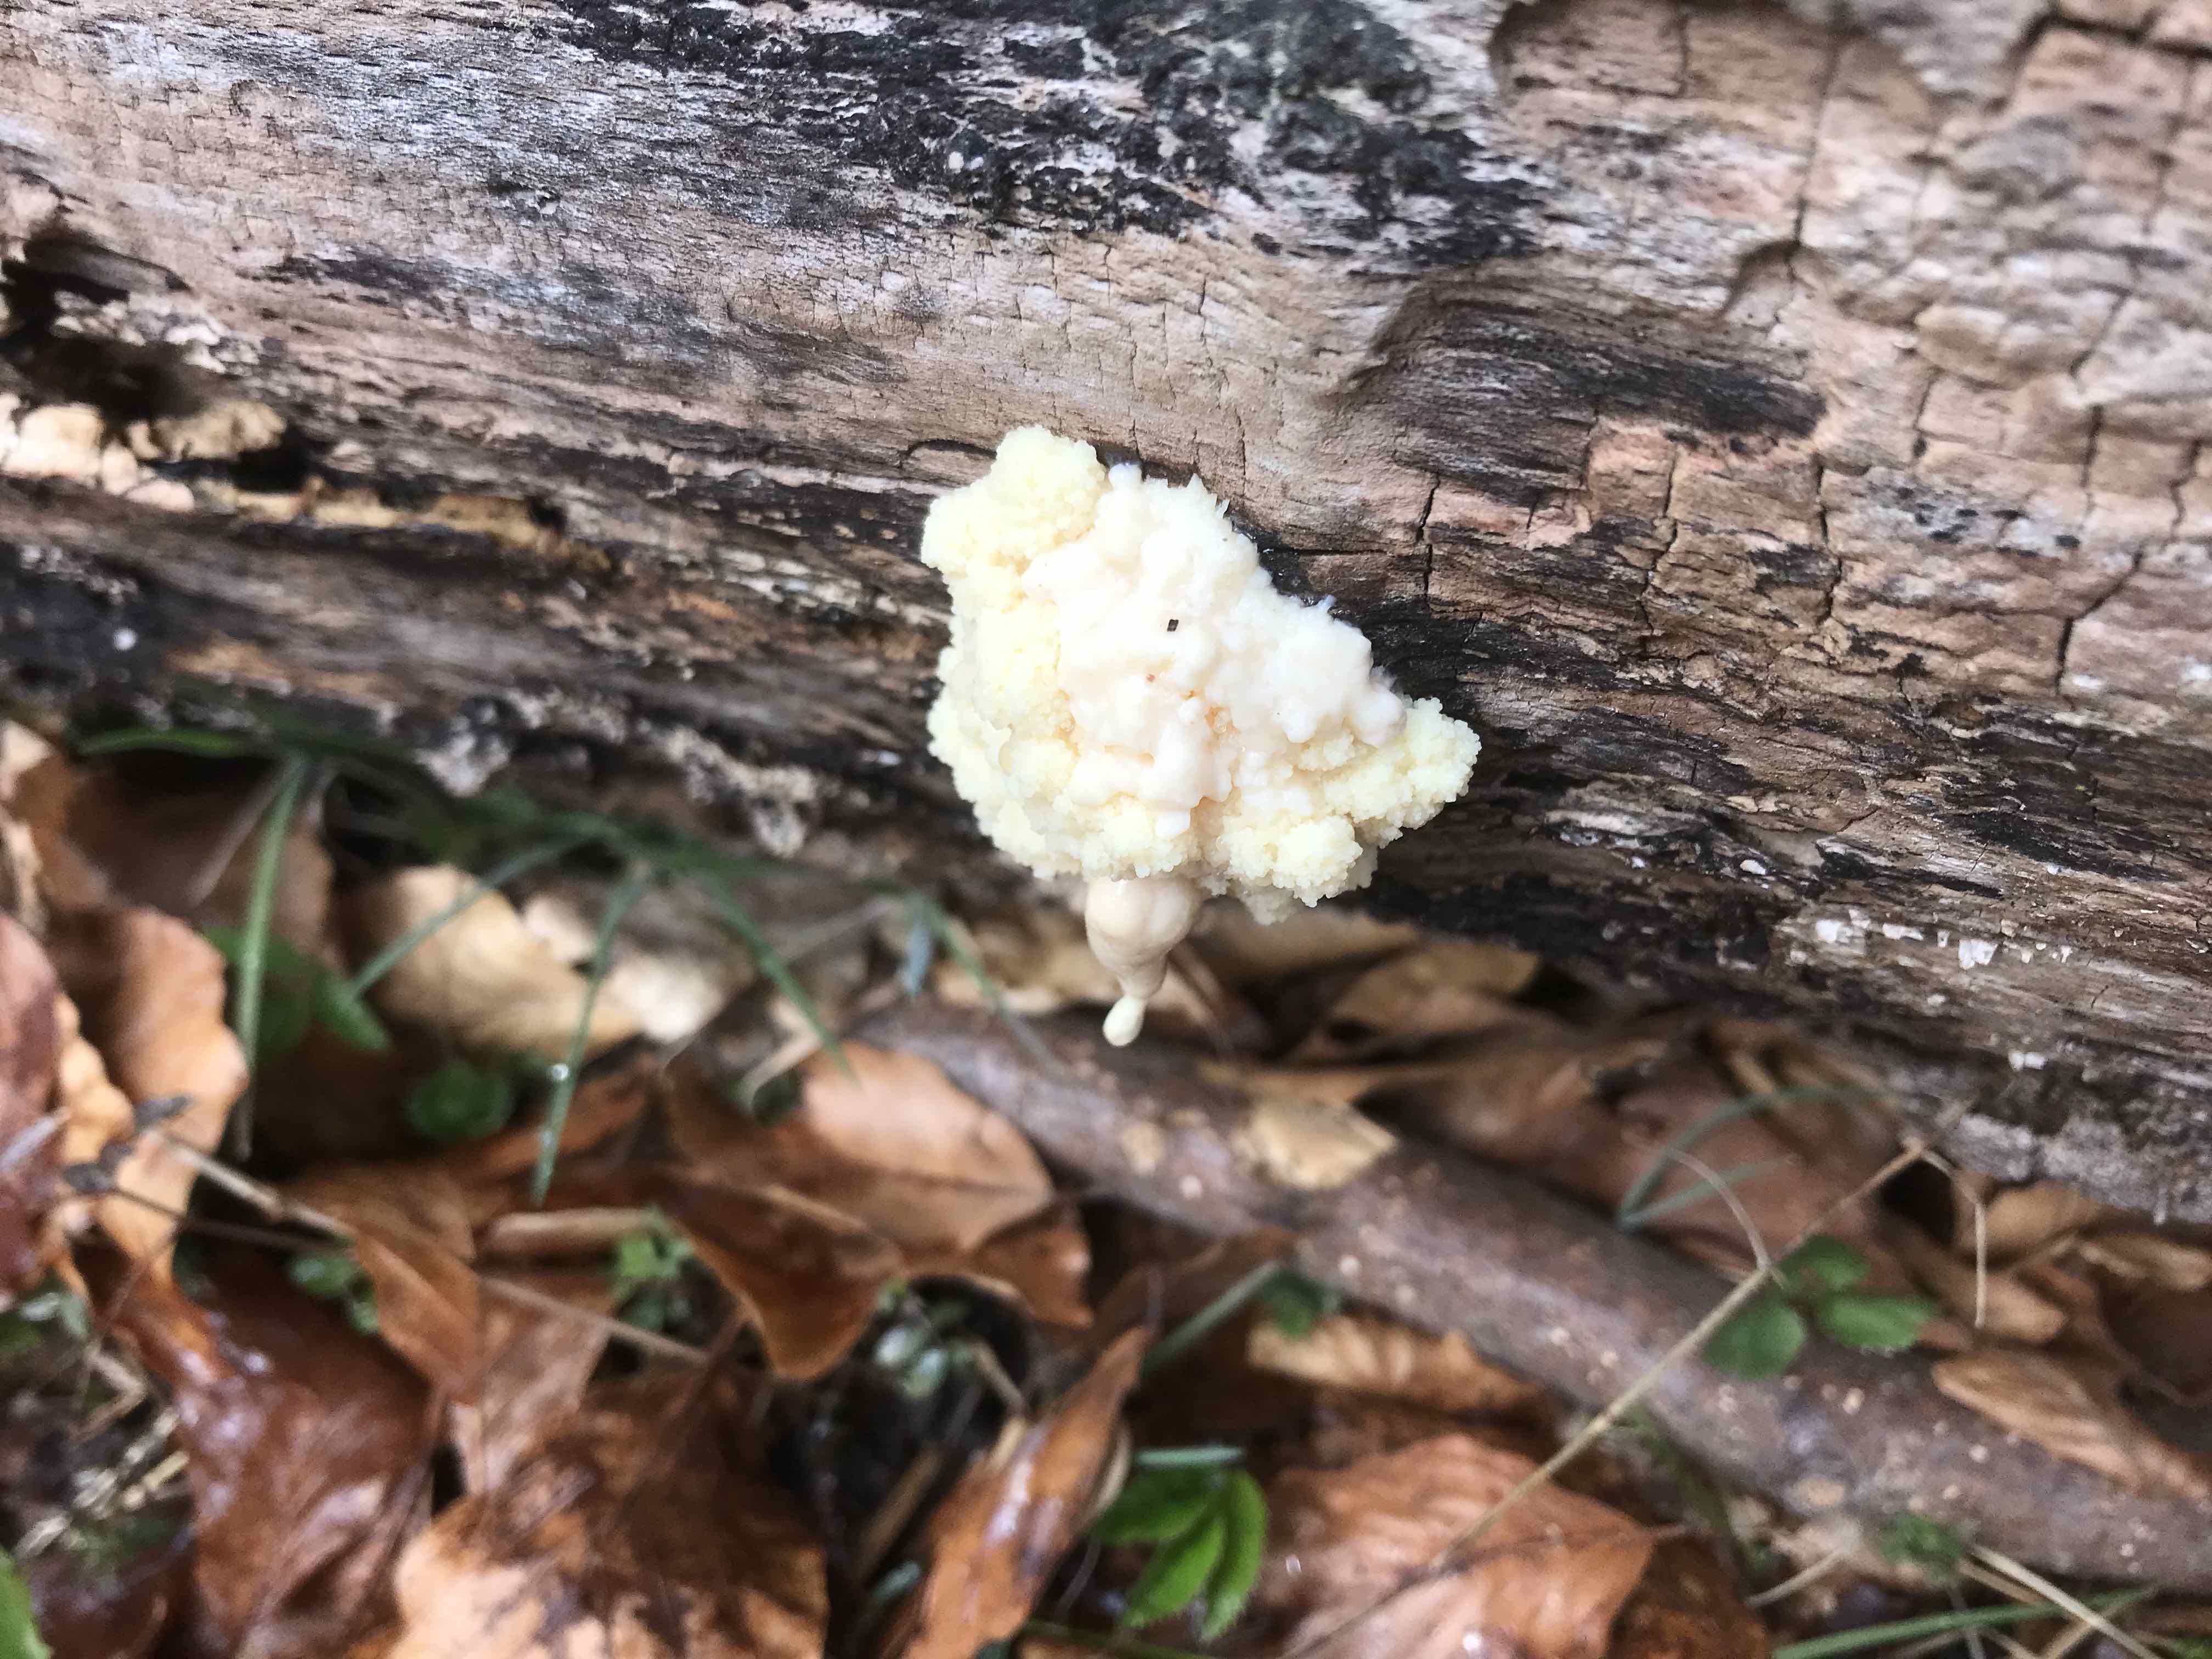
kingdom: Protozoa
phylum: Mycetozoa
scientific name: Mycetozoa
